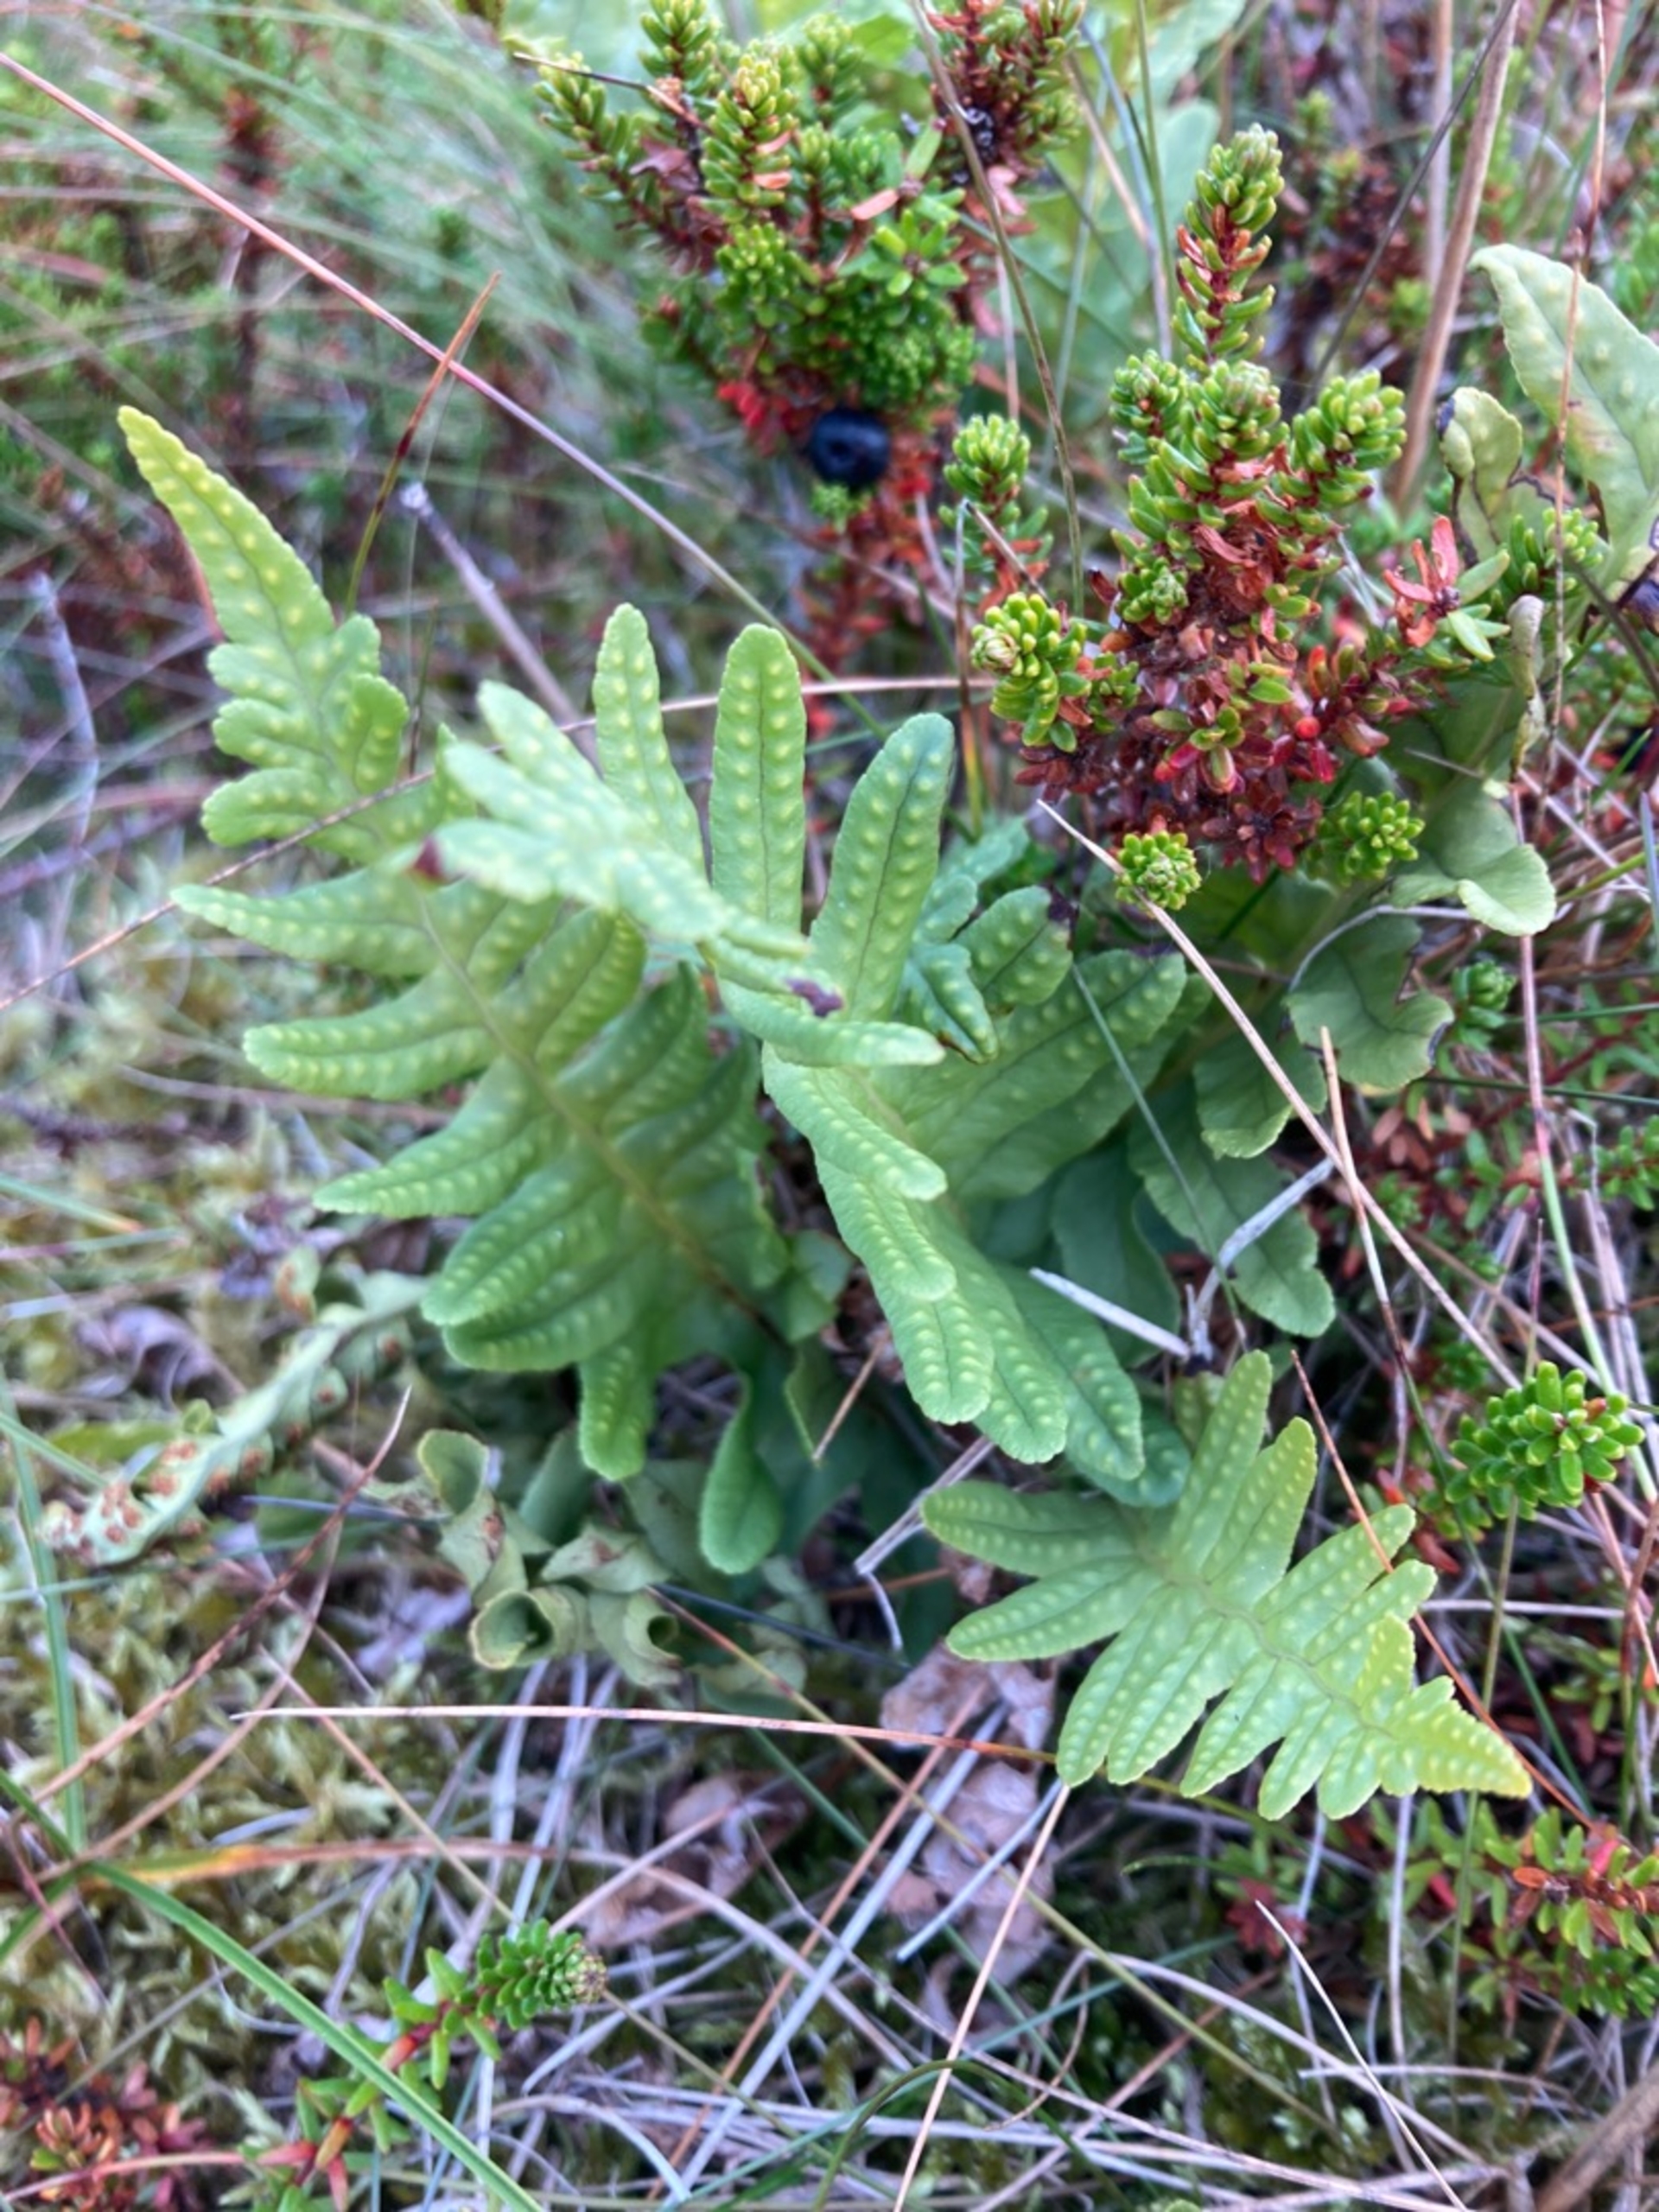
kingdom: Plantae
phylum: Tracheophyta
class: Polypodiopsida
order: Polypodiales
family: Polypodiaceae
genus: Polypodium
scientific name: Polypodium vulgare
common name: Almindelig engelsød
